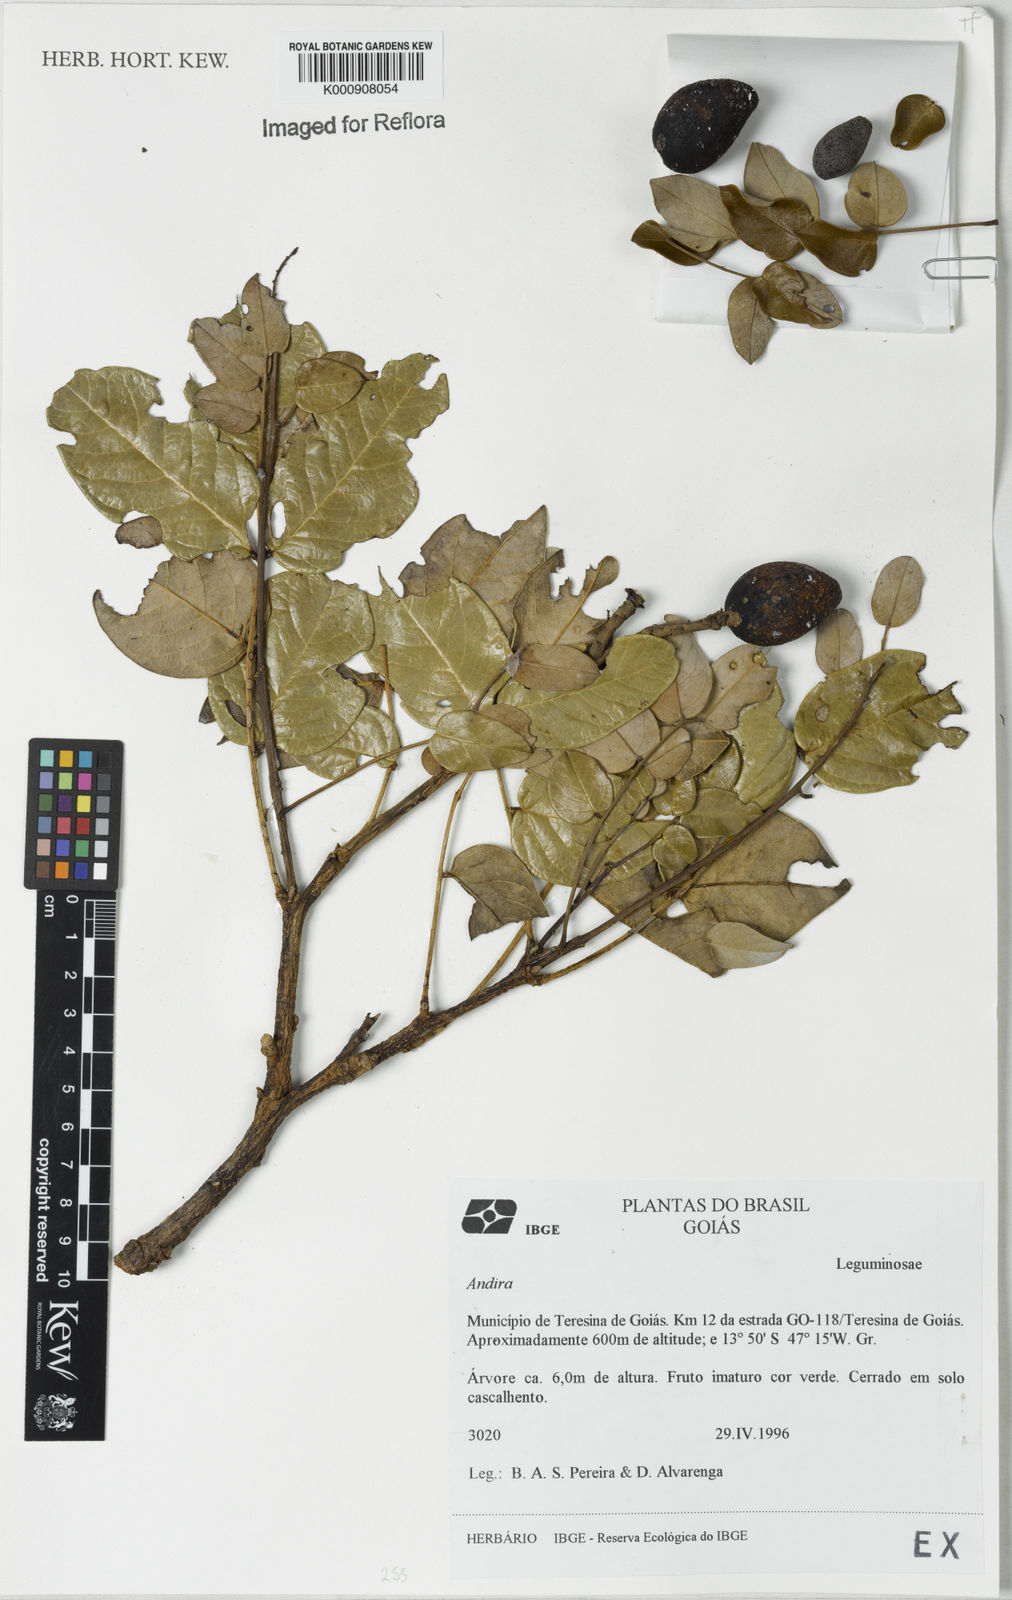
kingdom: Plantae
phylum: Tracheophyta
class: Magnoliopsida
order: Fabales
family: Fabaceae
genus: Andira
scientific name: Andira
